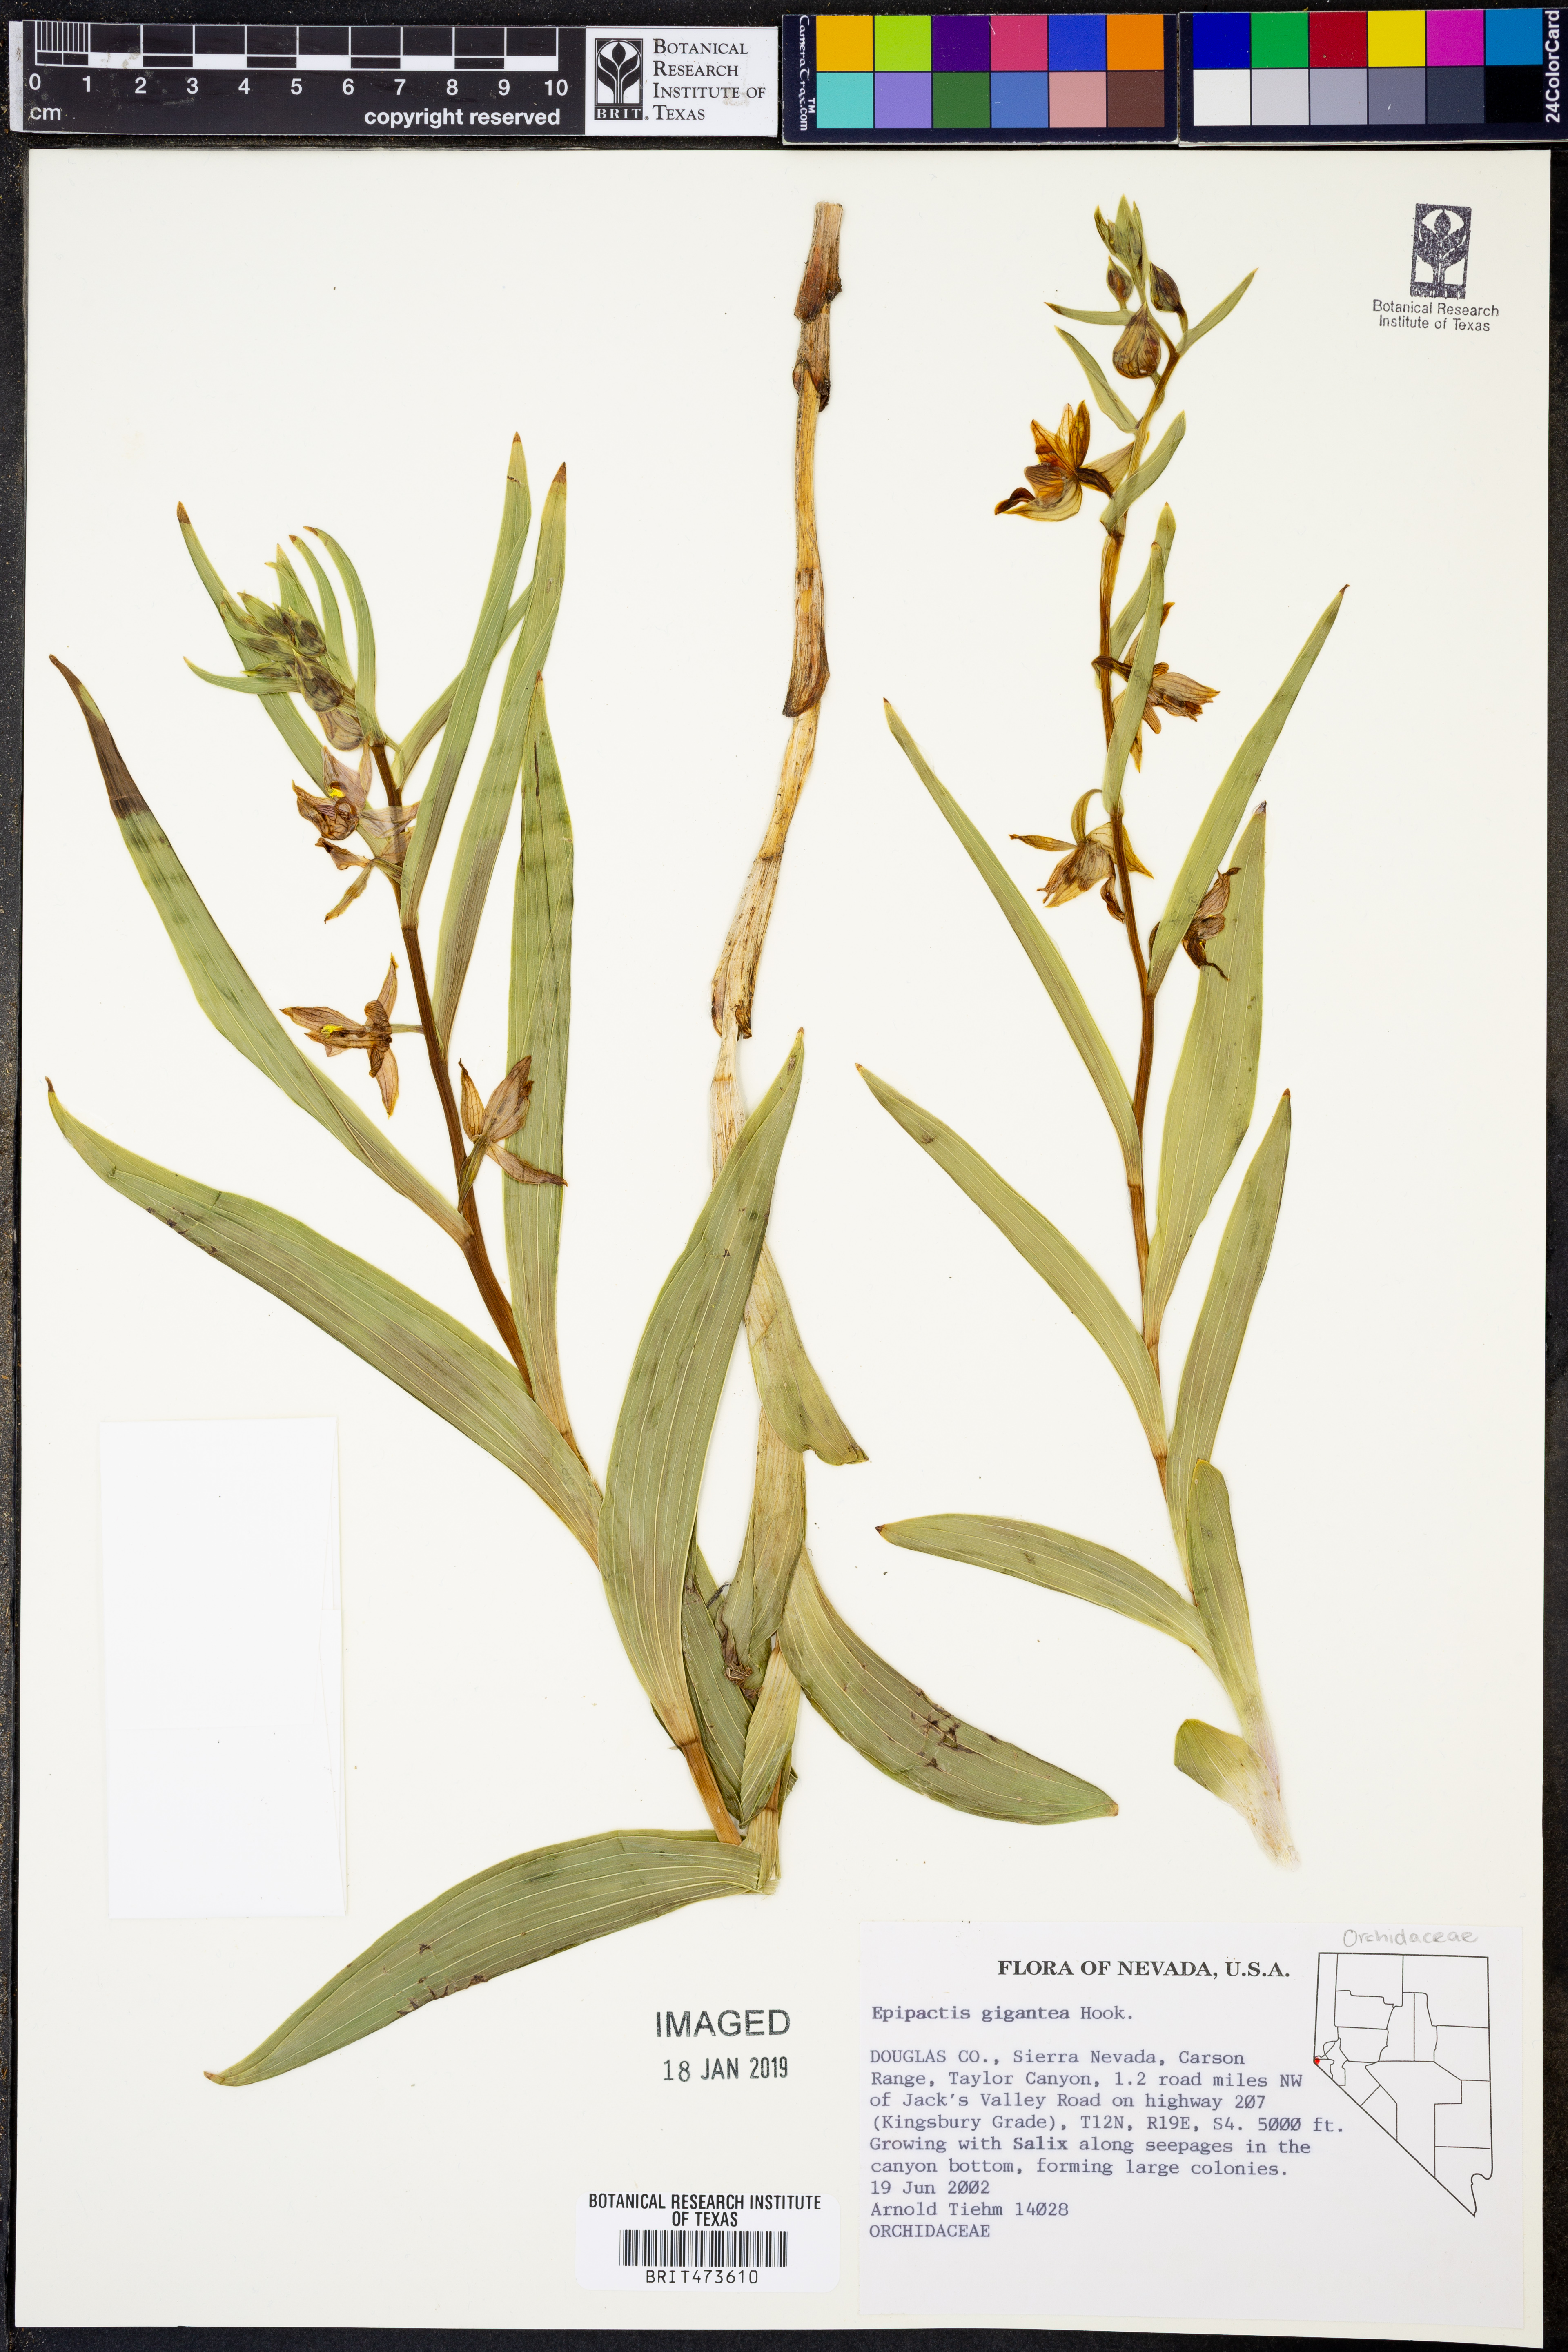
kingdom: Plantae
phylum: Tracheophyta
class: Liliopsida
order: Asparagales
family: Orchidaceae
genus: Epipactis
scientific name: Epipactis gigantea
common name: Chatterbox
